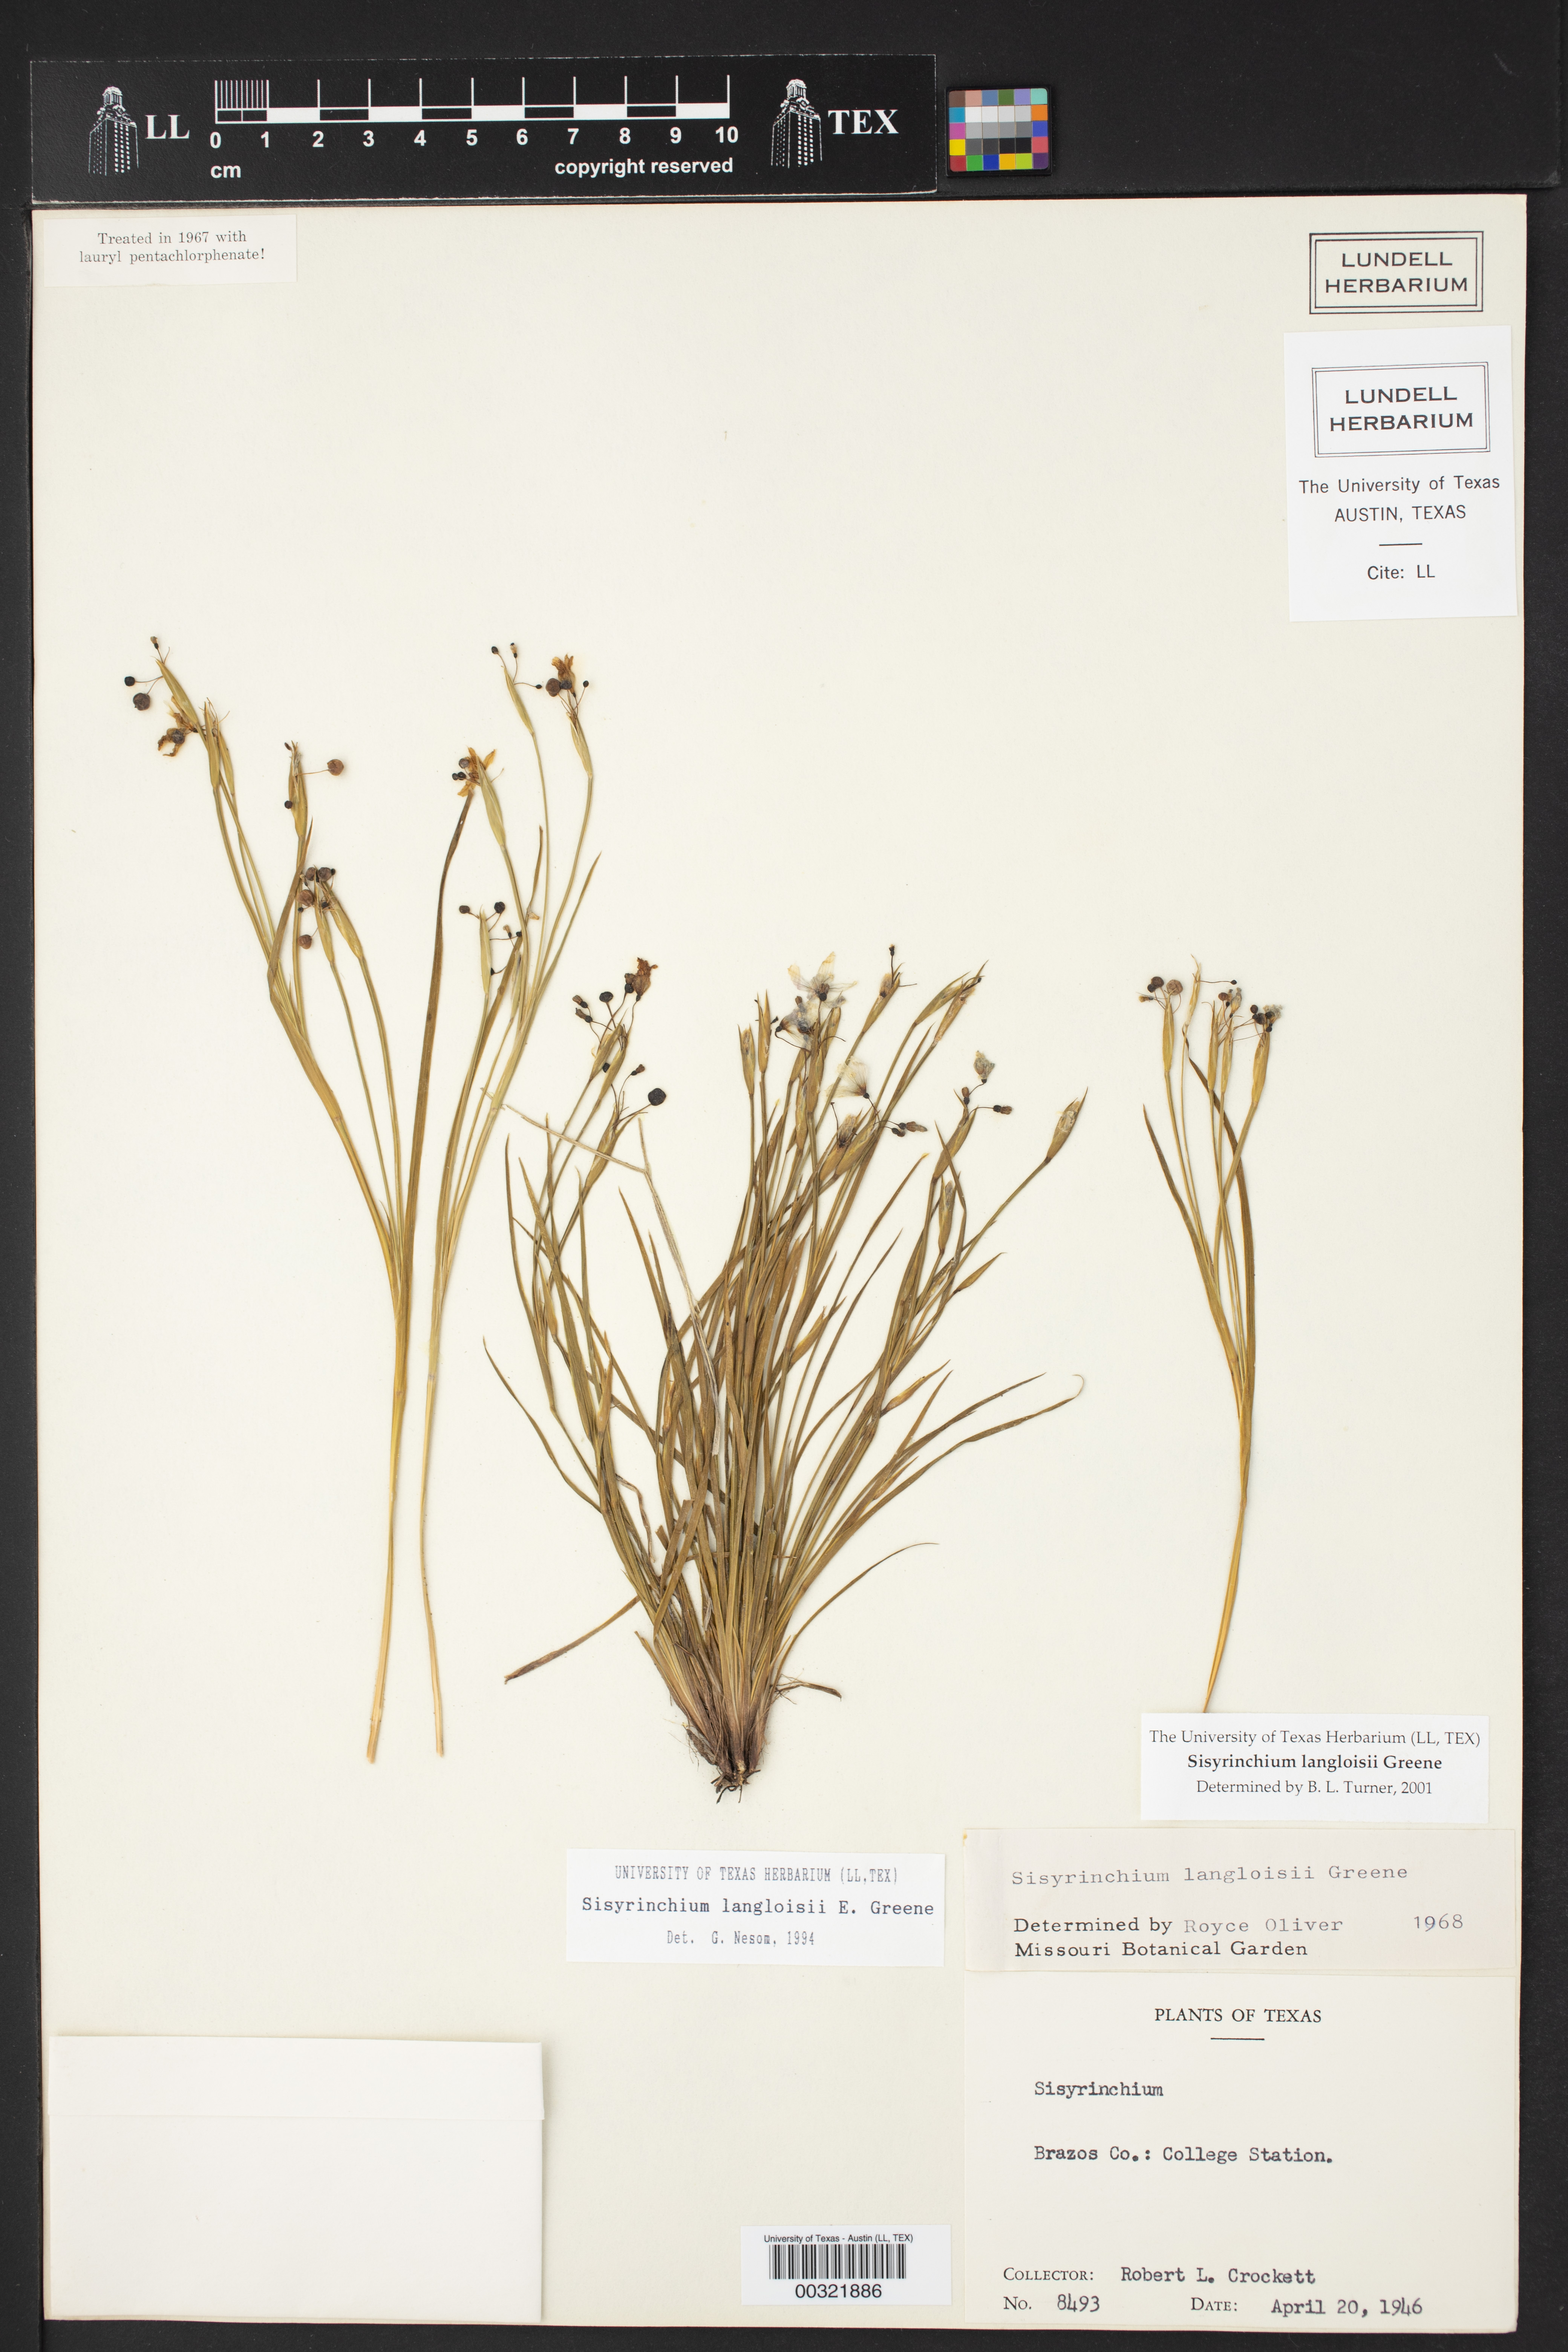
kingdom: Plantae
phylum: Tracheophyta
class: Liliopsida
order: Asparagales
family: Iridaceae
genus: Sisyrinchium
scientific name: Sisyrinchium langloisii
